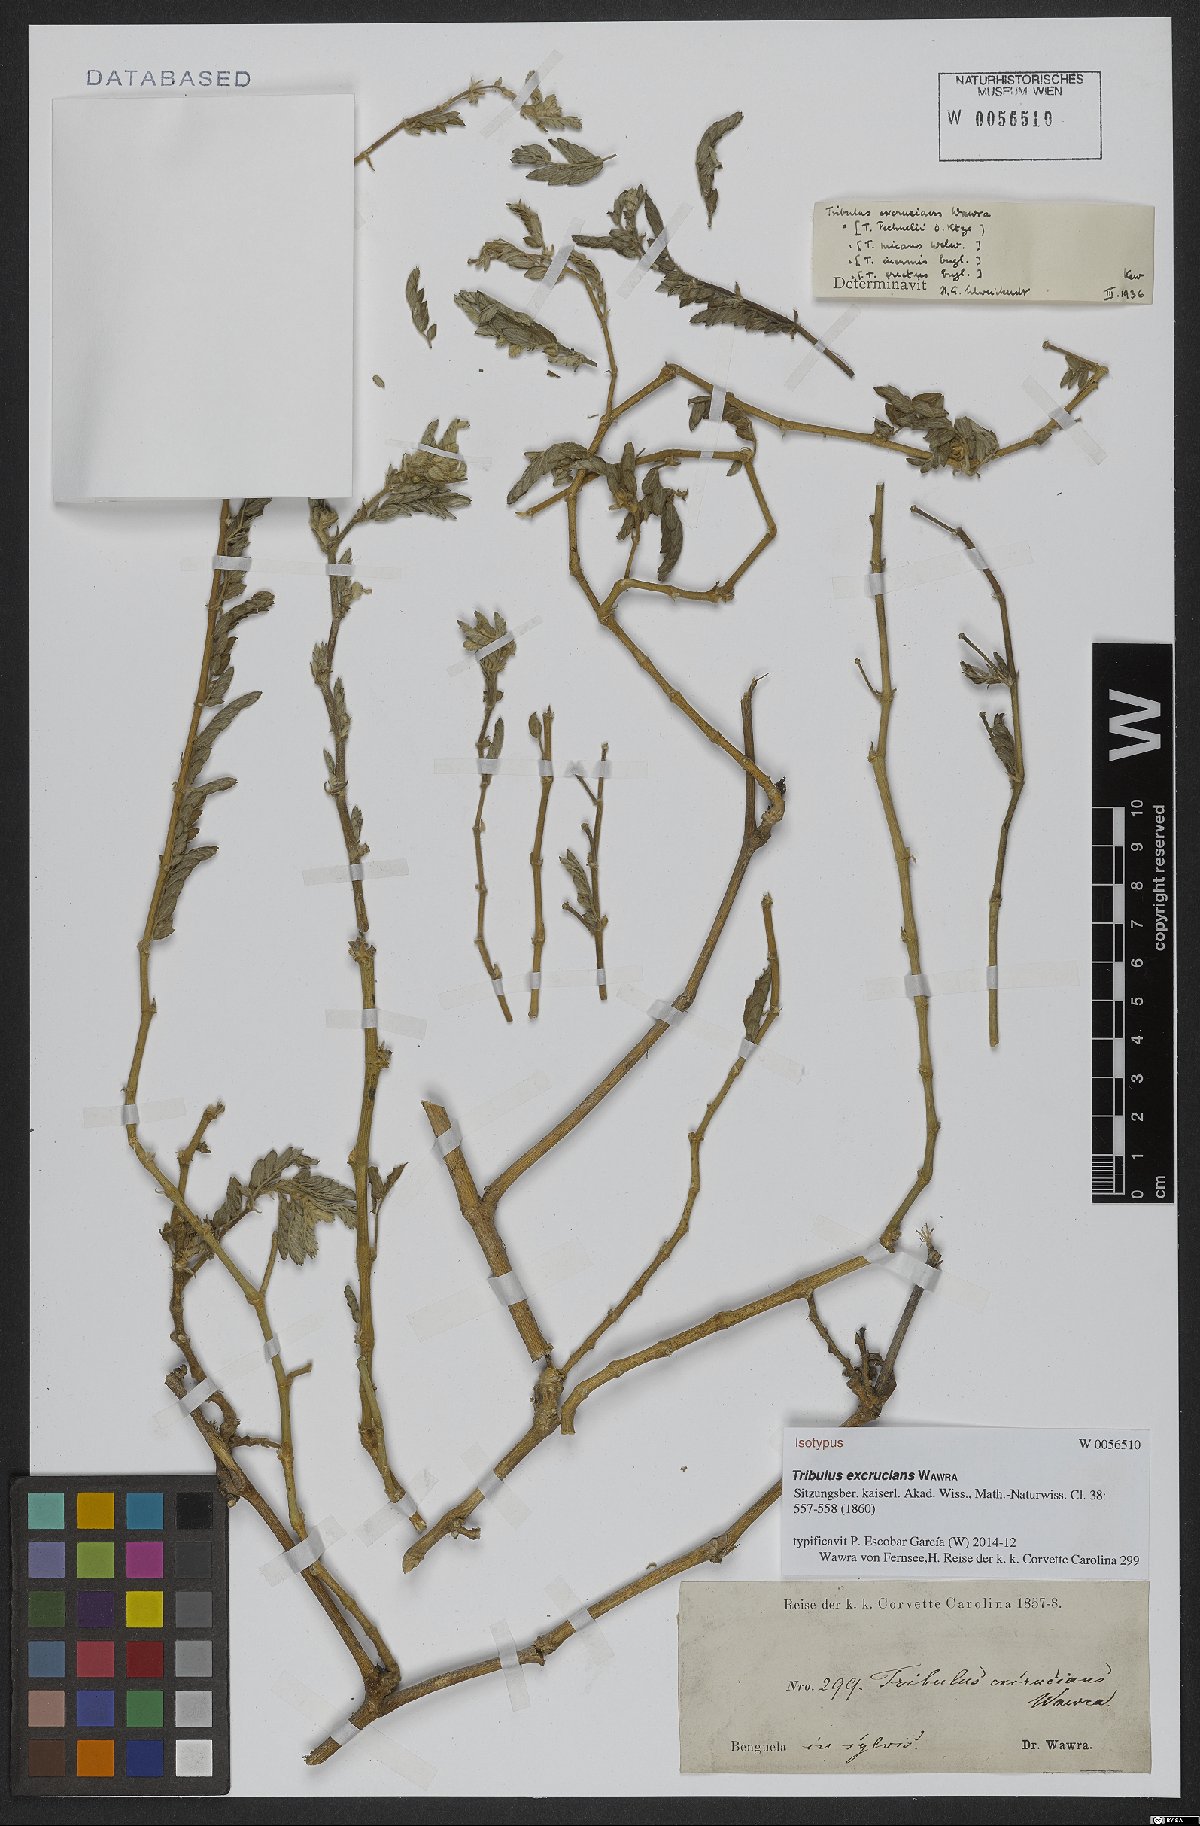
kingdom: Plantae
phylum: Tracheophyta
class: Magnoliopsida
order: Zygophyllales
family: Zygophyllaceae
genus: Tribulus
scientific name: Tribulus excrucians
